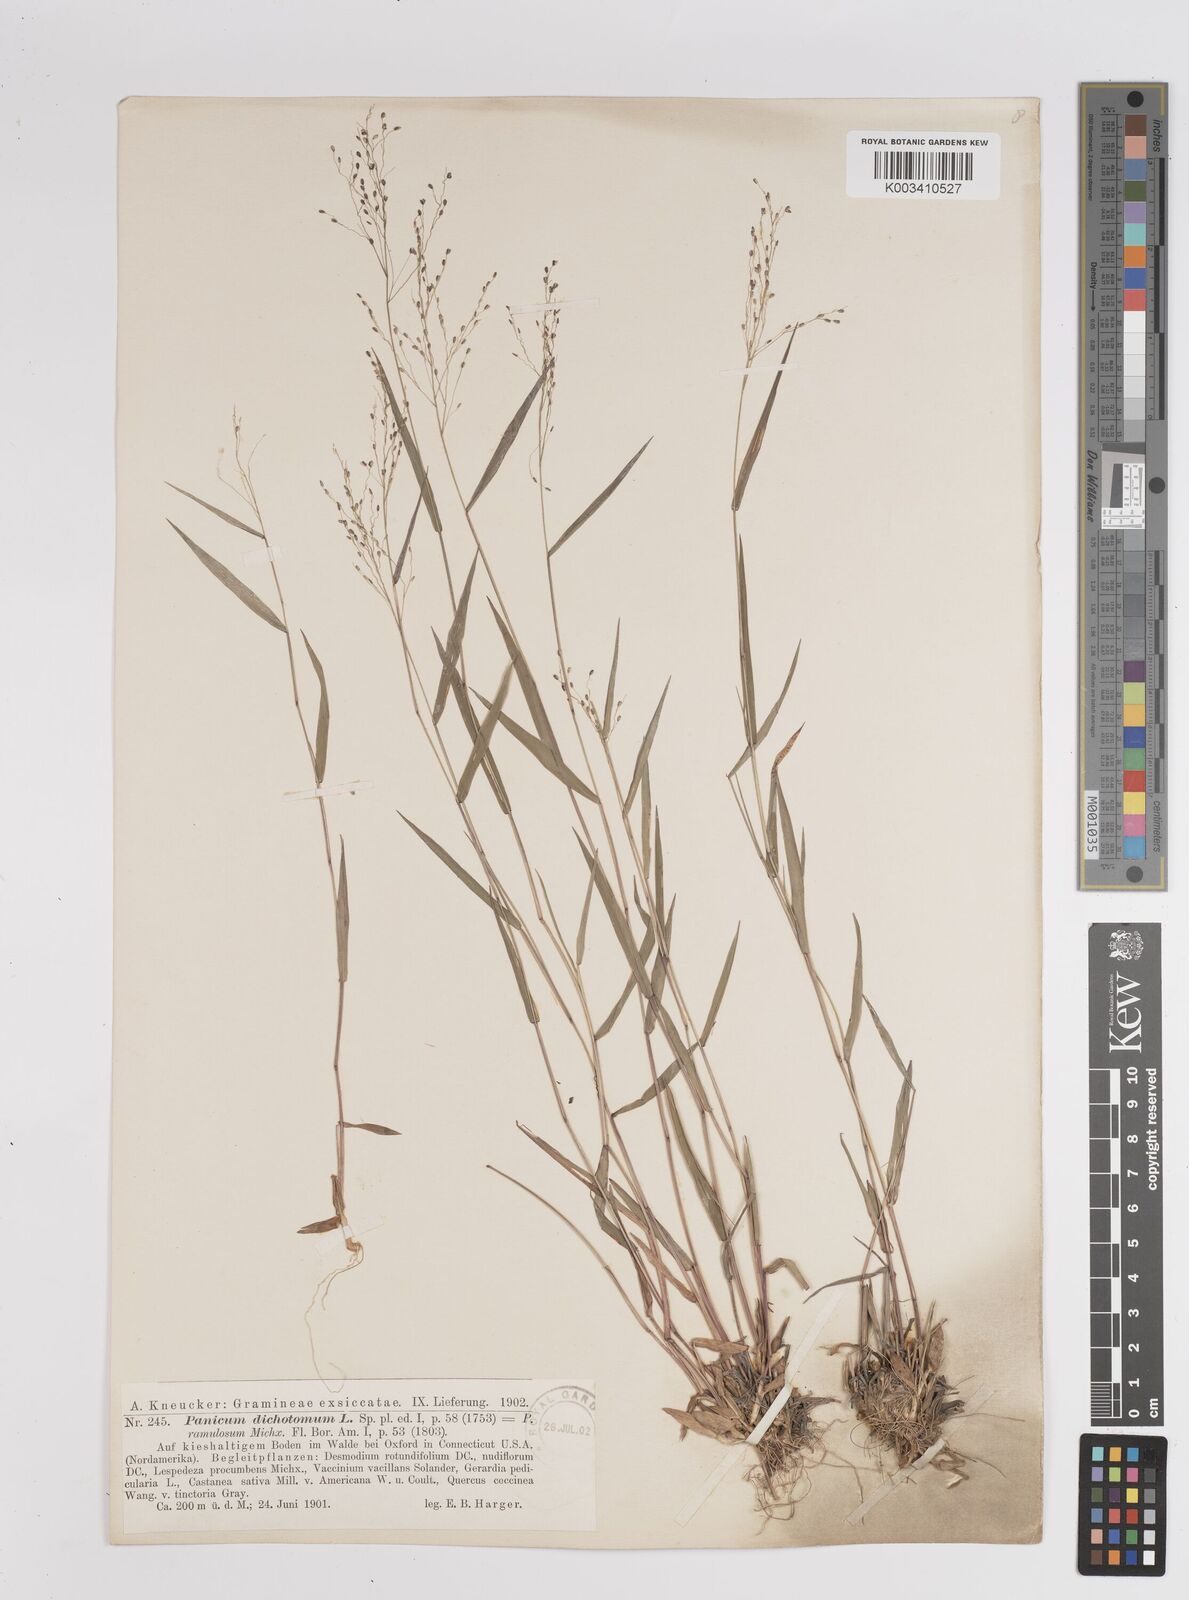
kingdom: Plantae
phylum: Tracheophyta
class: Liliopsida
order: Poales
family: Poaceae
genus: Dichanthelium
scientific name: Dichanthelium polyanthes
